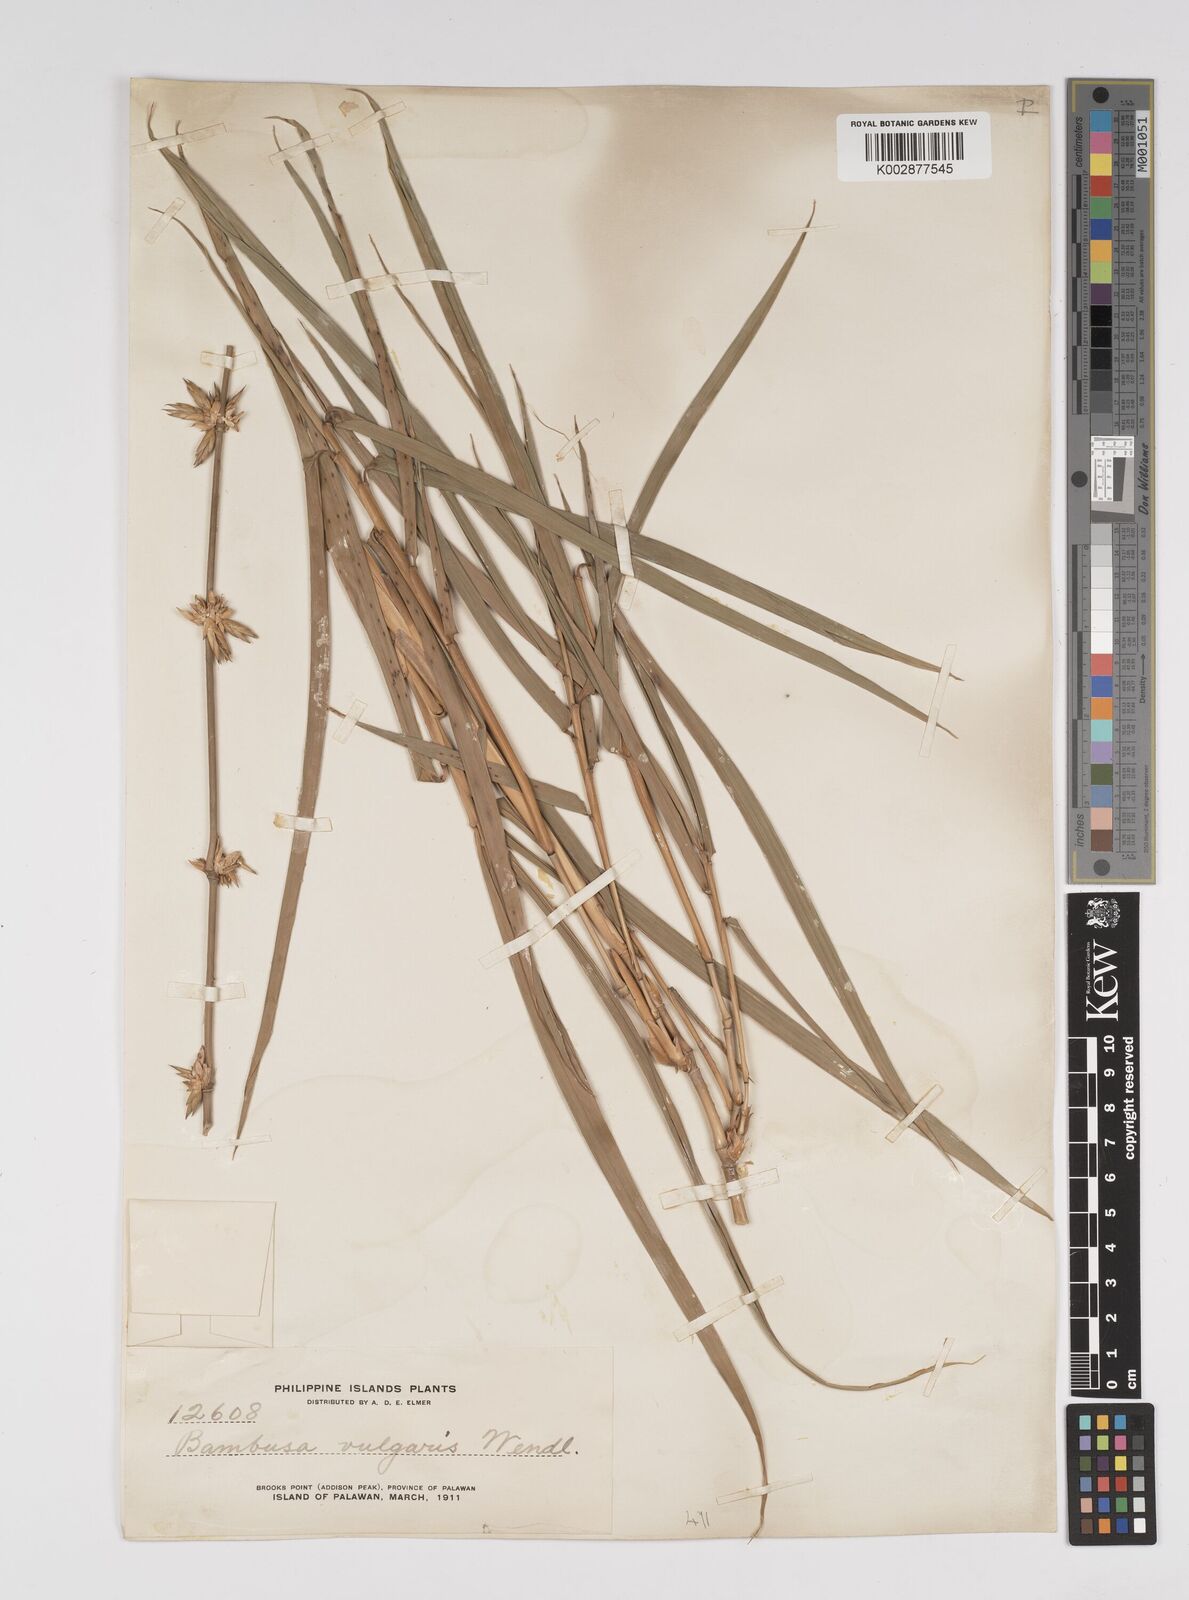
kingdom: Plantae
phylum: Tracheophyta
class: Liliopsida
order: Poales
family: Poaceae
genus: Bambusa
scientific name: Bambusa vulgaris
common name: Common bamboo
